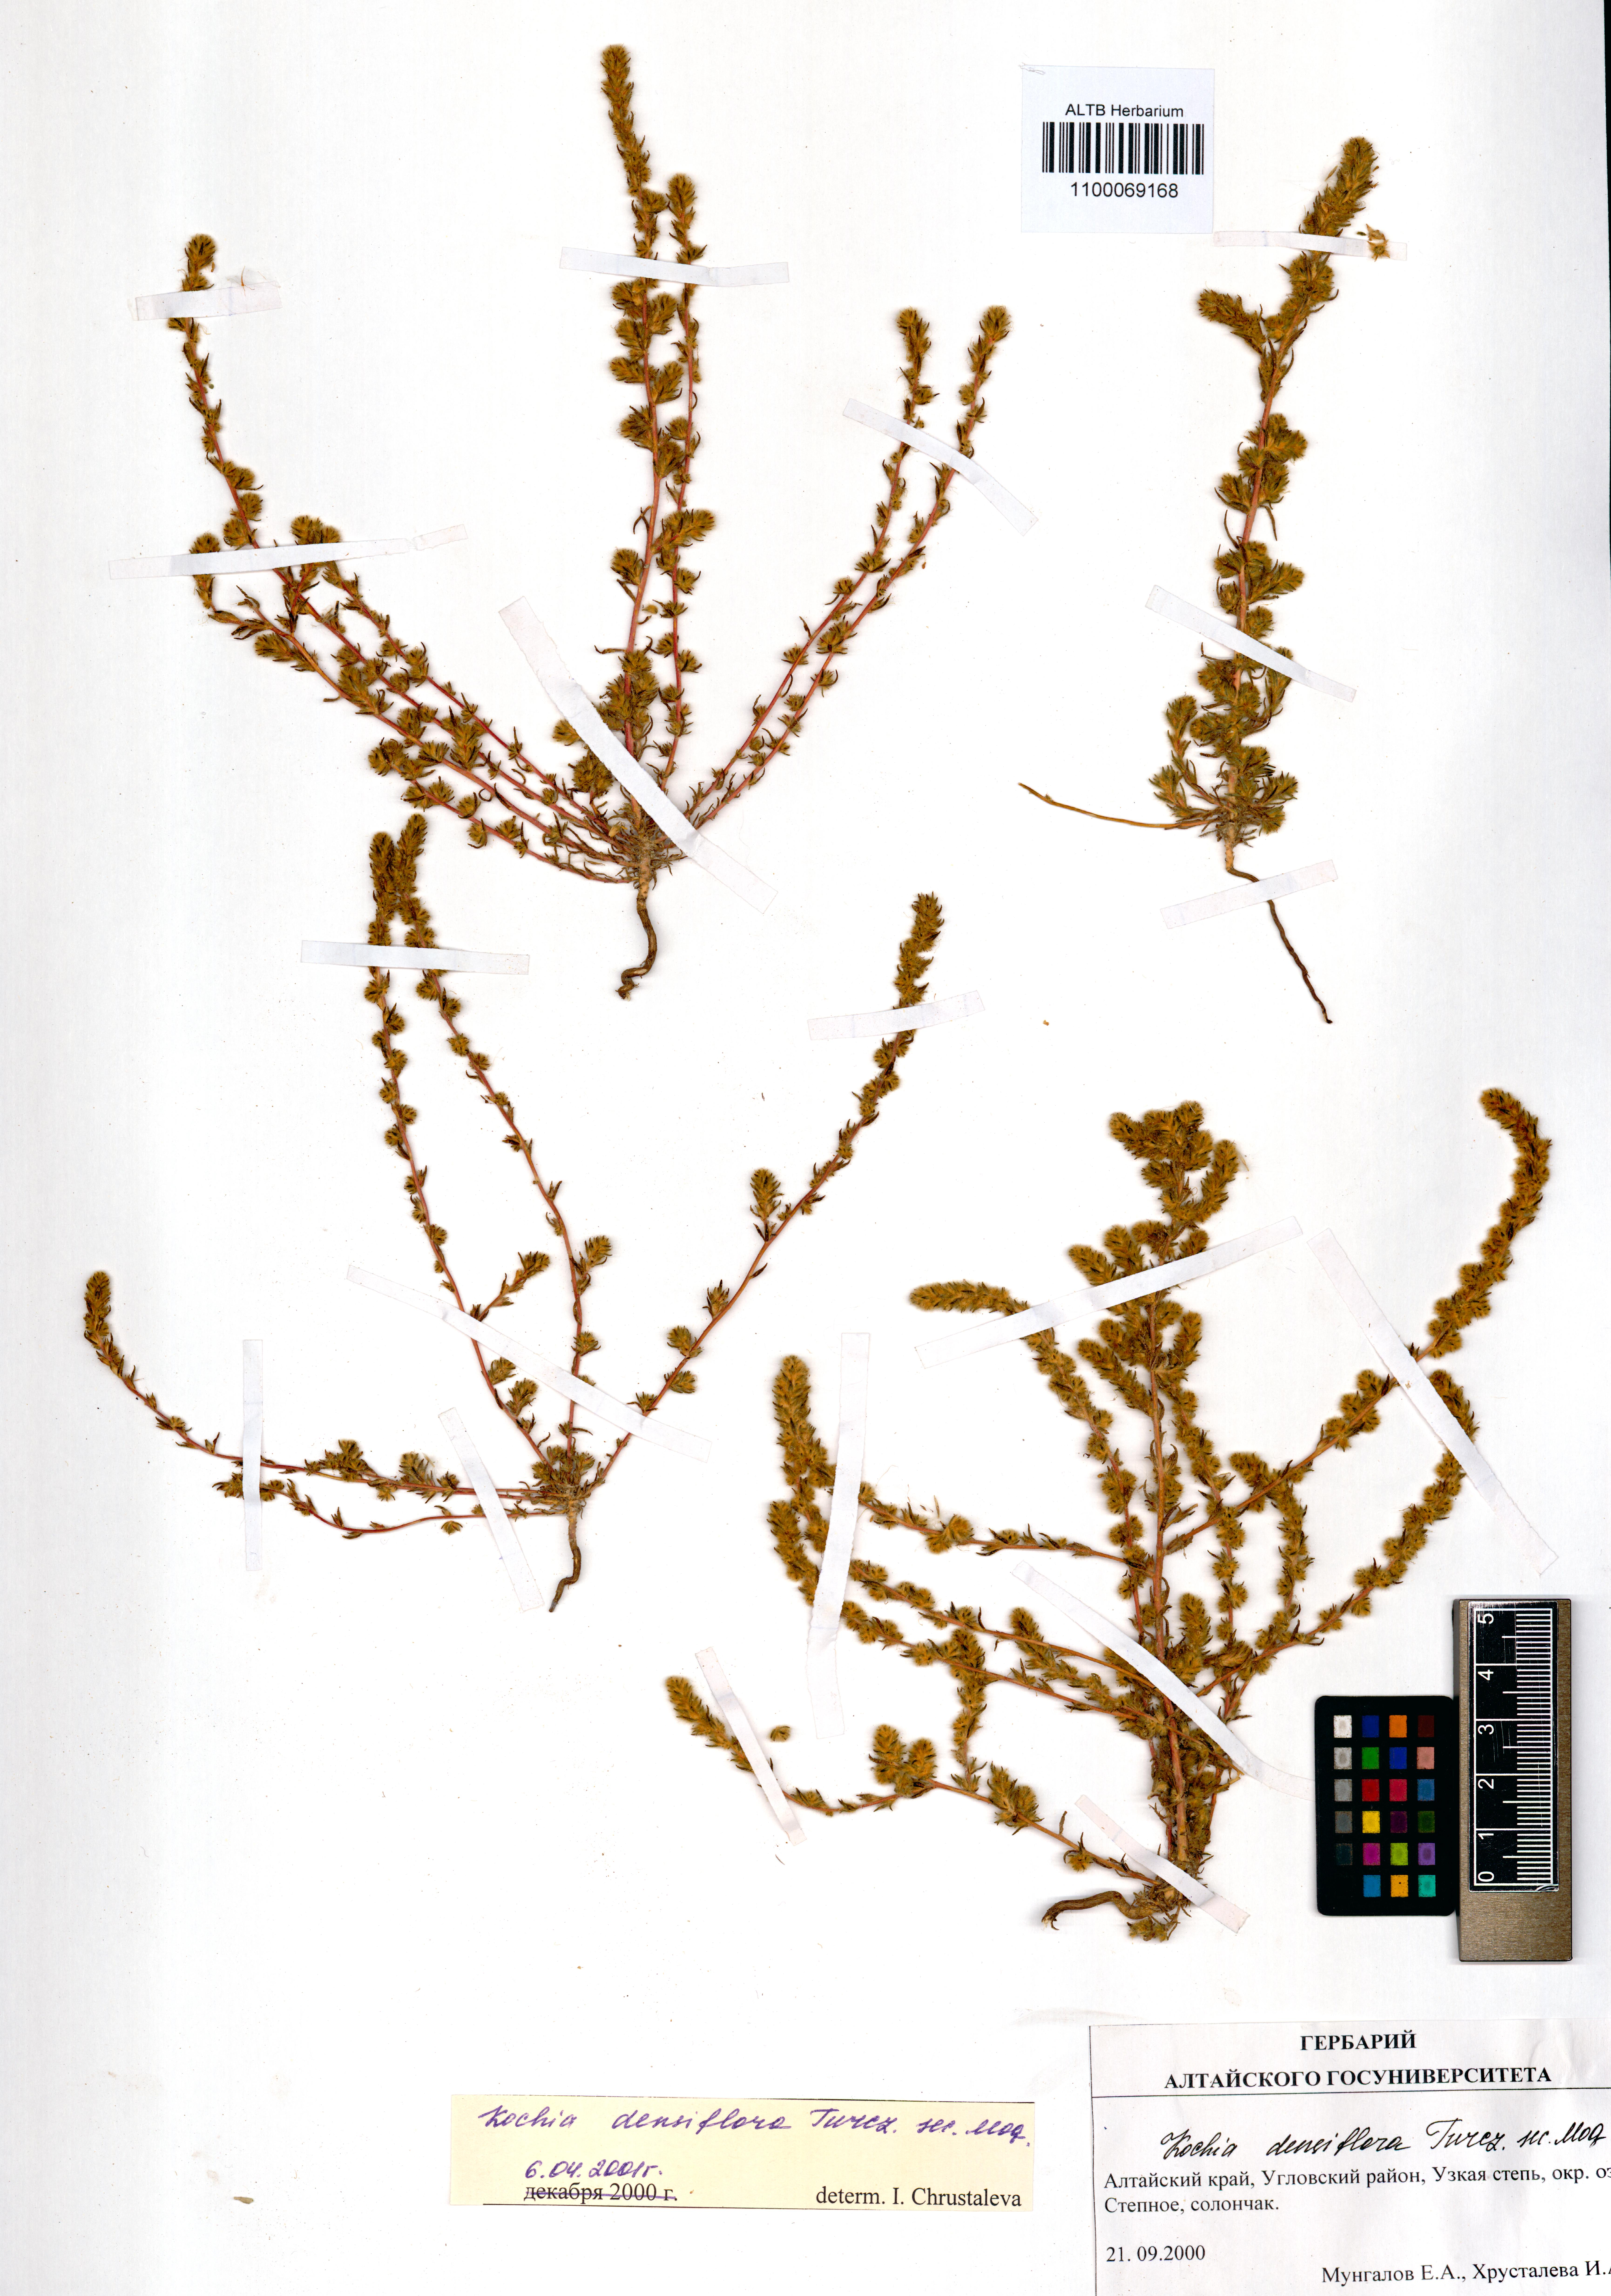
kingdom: Plantae
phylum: Tracheophyta
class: Magnoliopsida
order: Caryophyllales
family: Amaranthaceae
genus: Bassia
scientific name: Bassia scoparia
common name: Belvedere
